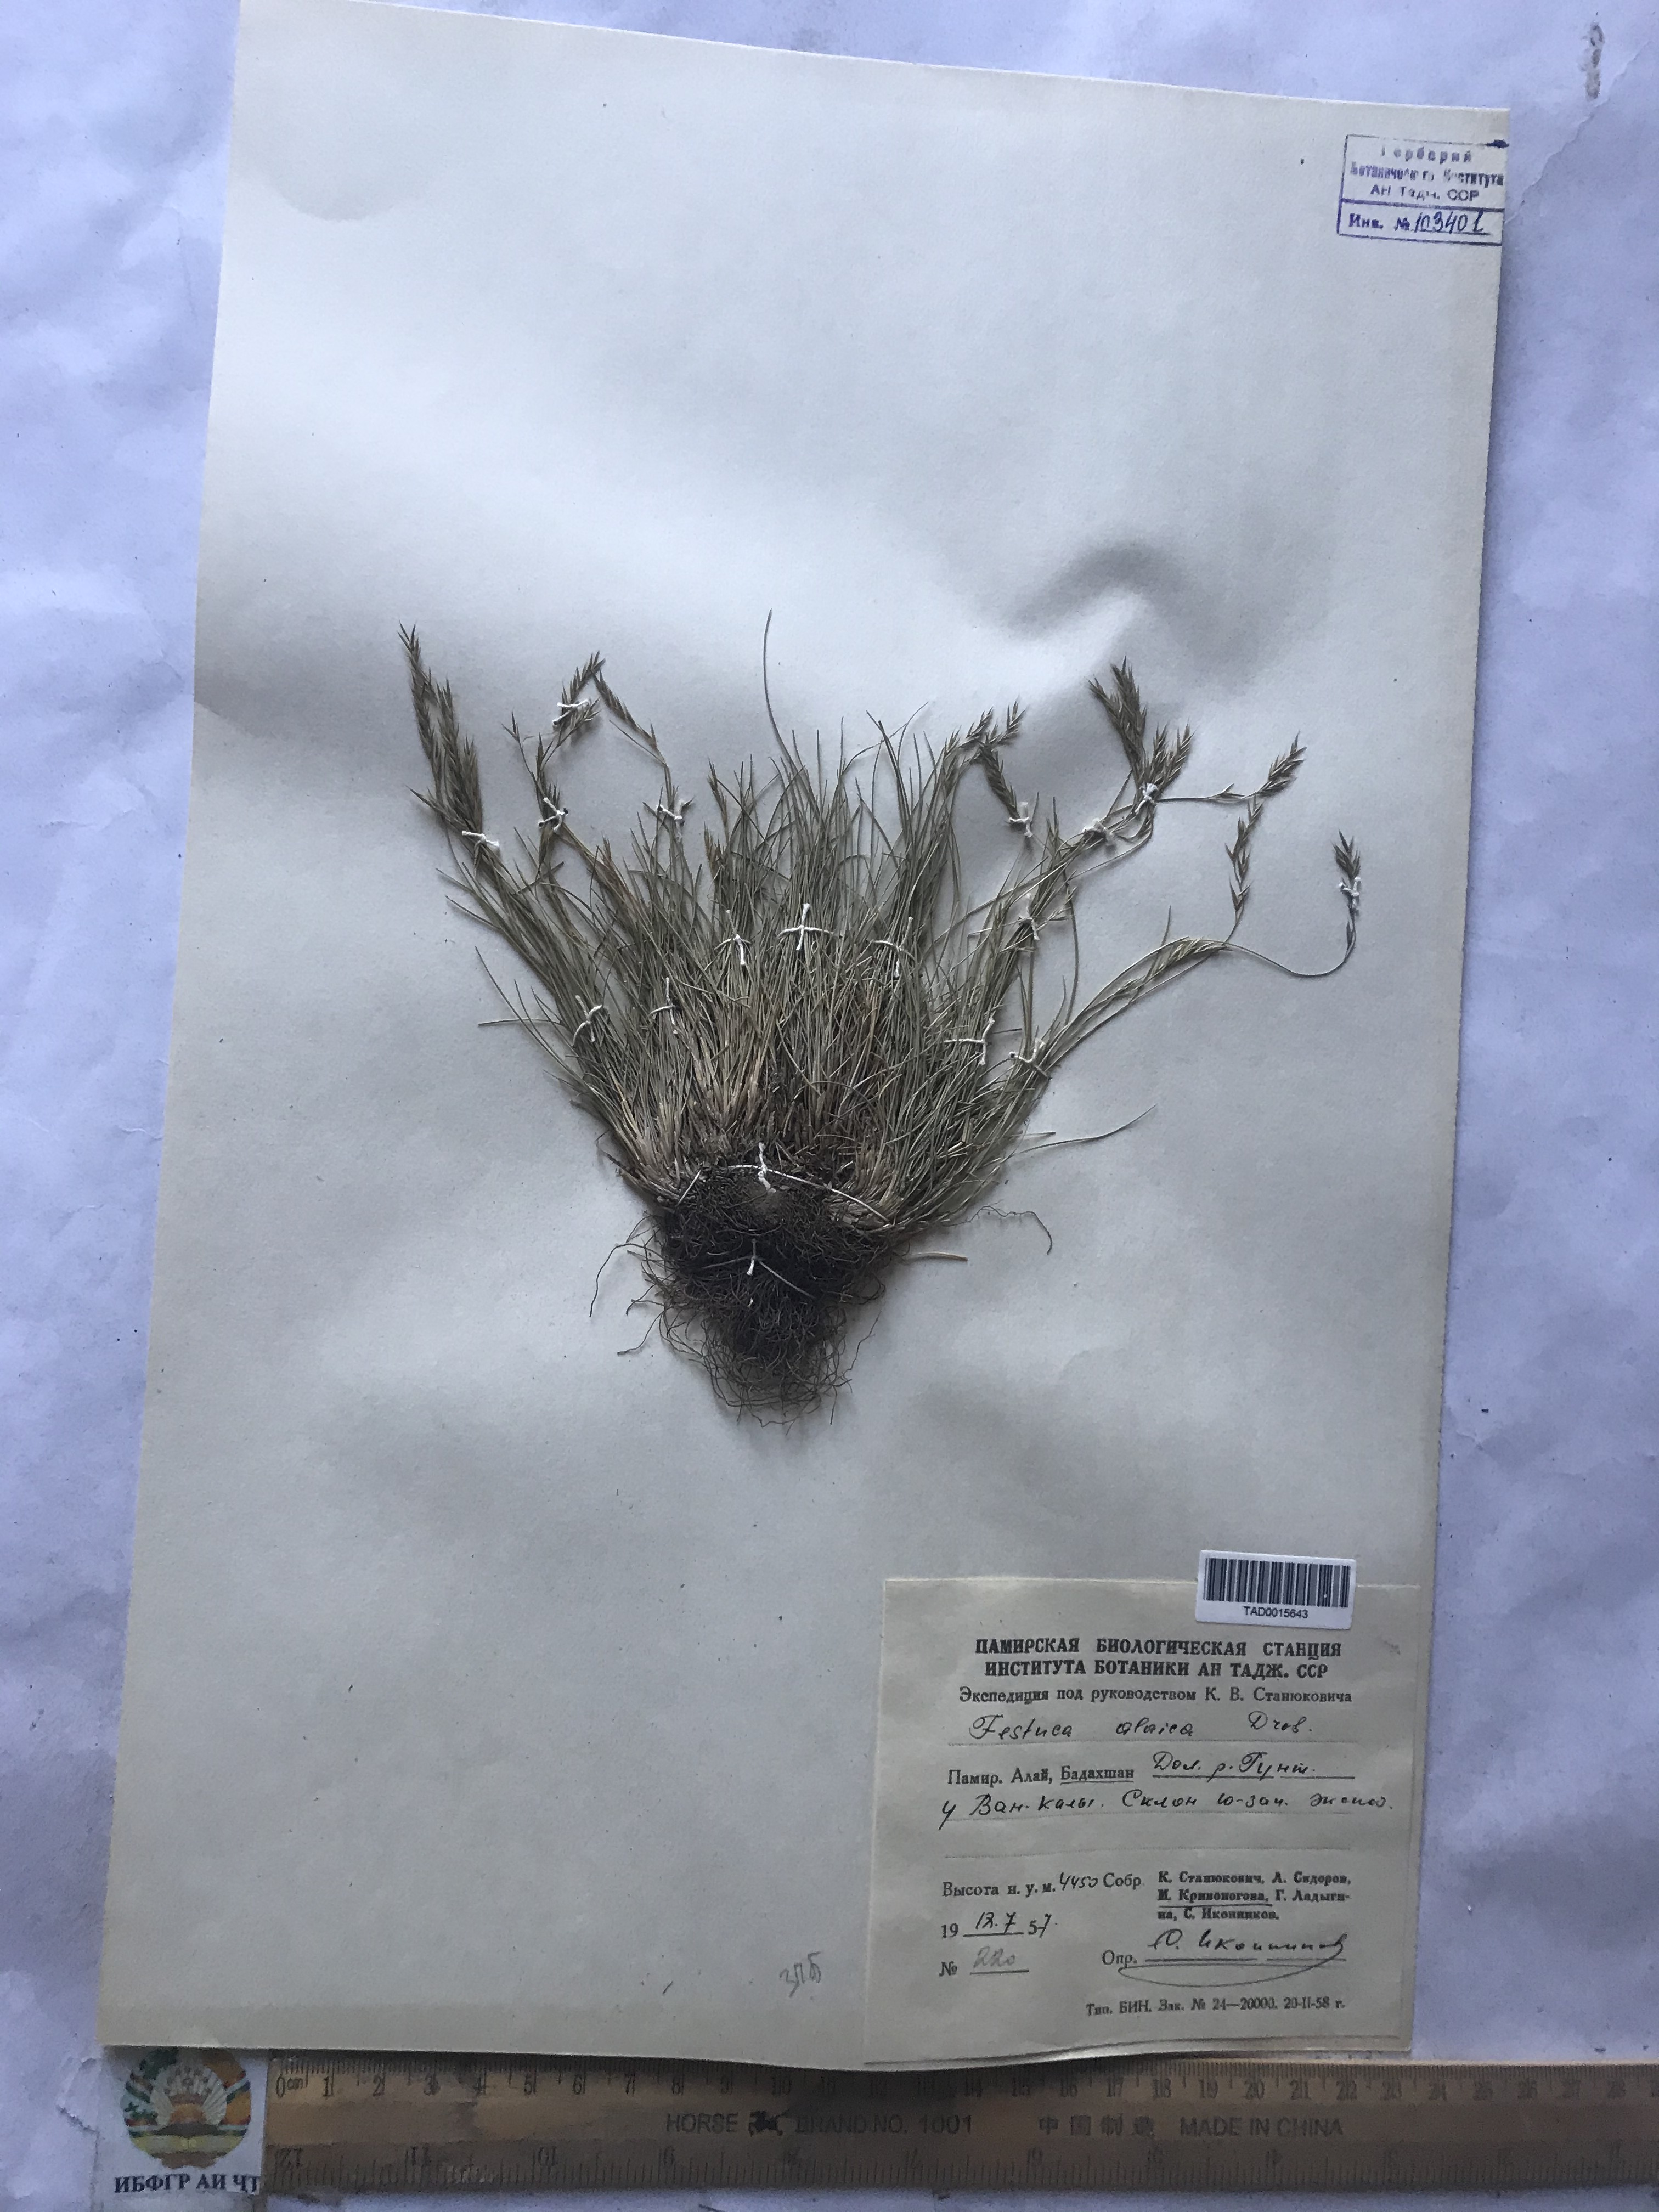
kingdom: Plantae
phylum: Tracheophyta
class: Liliopsida
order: Poales
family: Poaceae
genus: Festuca
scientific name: Festuca alaica
